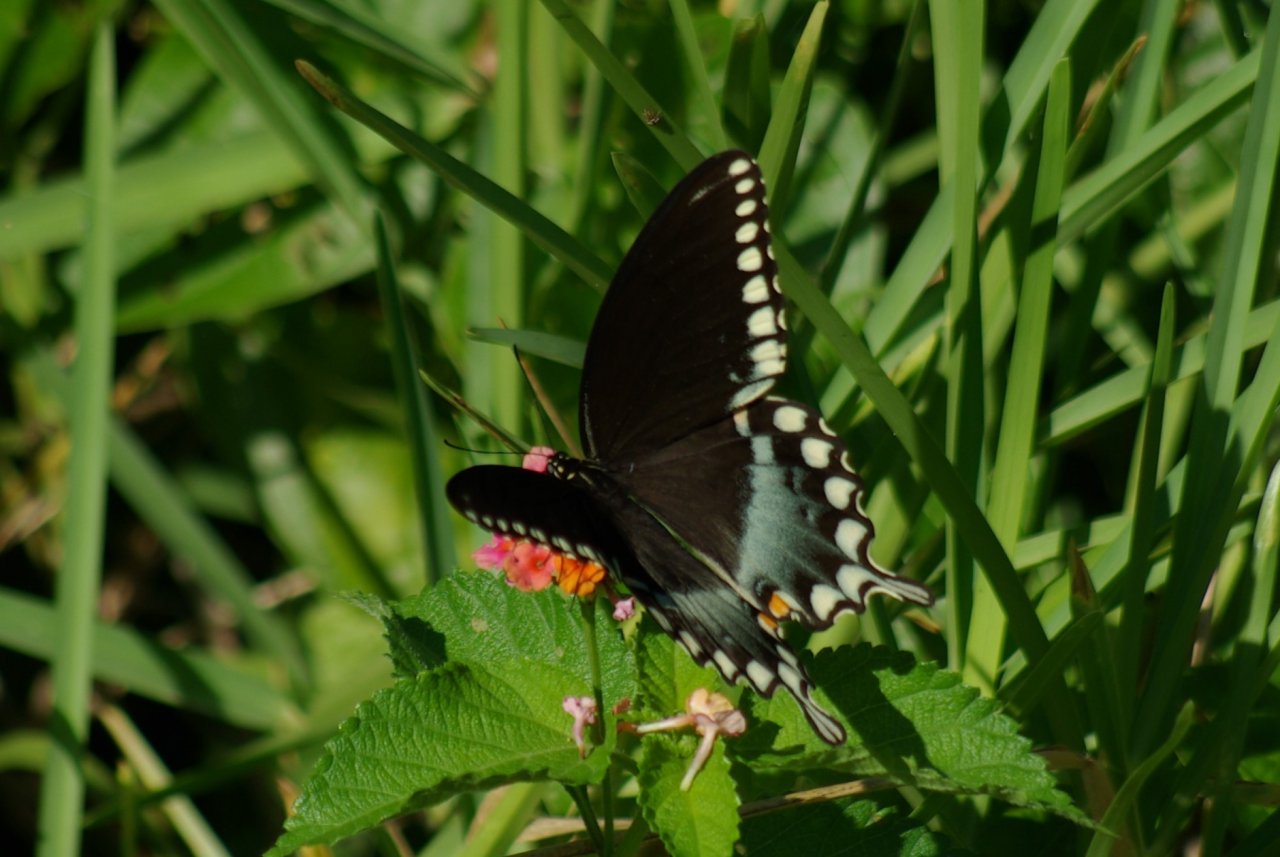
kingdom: Animalia
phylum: Arthropoda
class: Insecta
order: Lepidoptera
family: Papilionidae
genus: Pterourus
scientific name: Pterourus troilus
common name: Spicebush Swallowtail
